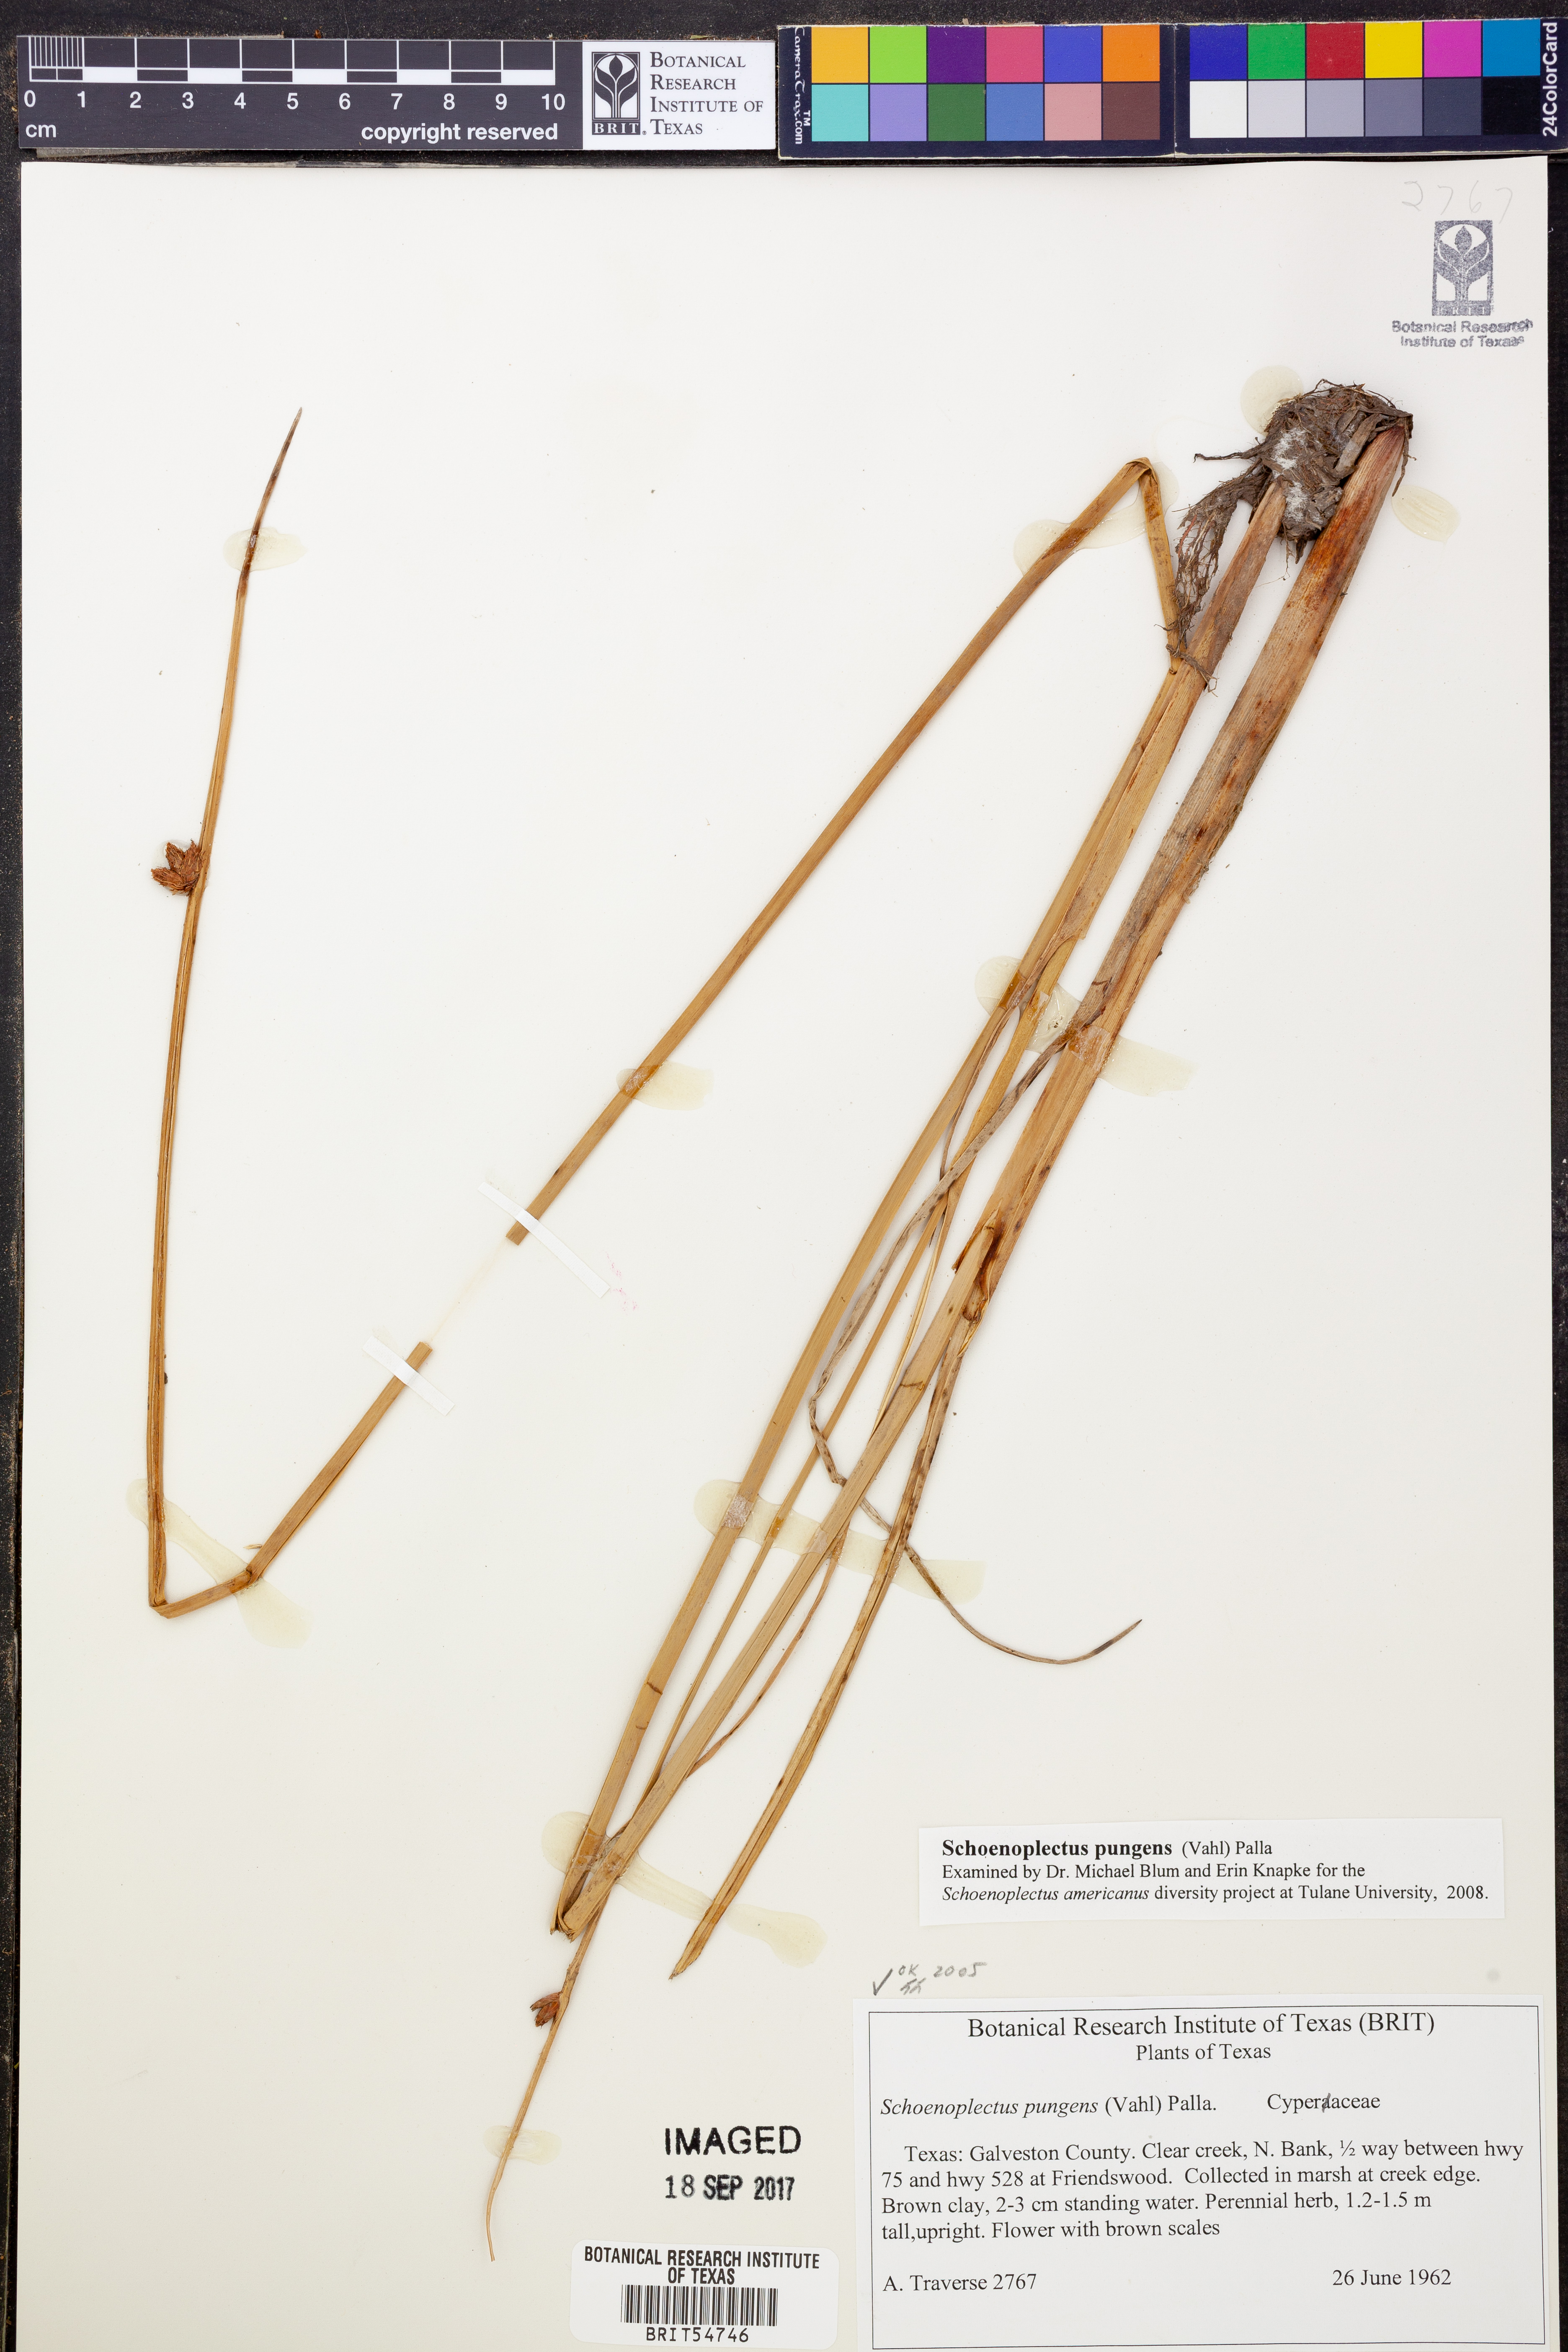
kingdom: Plantae
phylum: Tracheophyta
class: Liliopsida
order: Poales
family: Cyperaceae
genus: Schoenoplectus
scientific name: Schoenoplectus pungens
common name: Sharp club-rush
